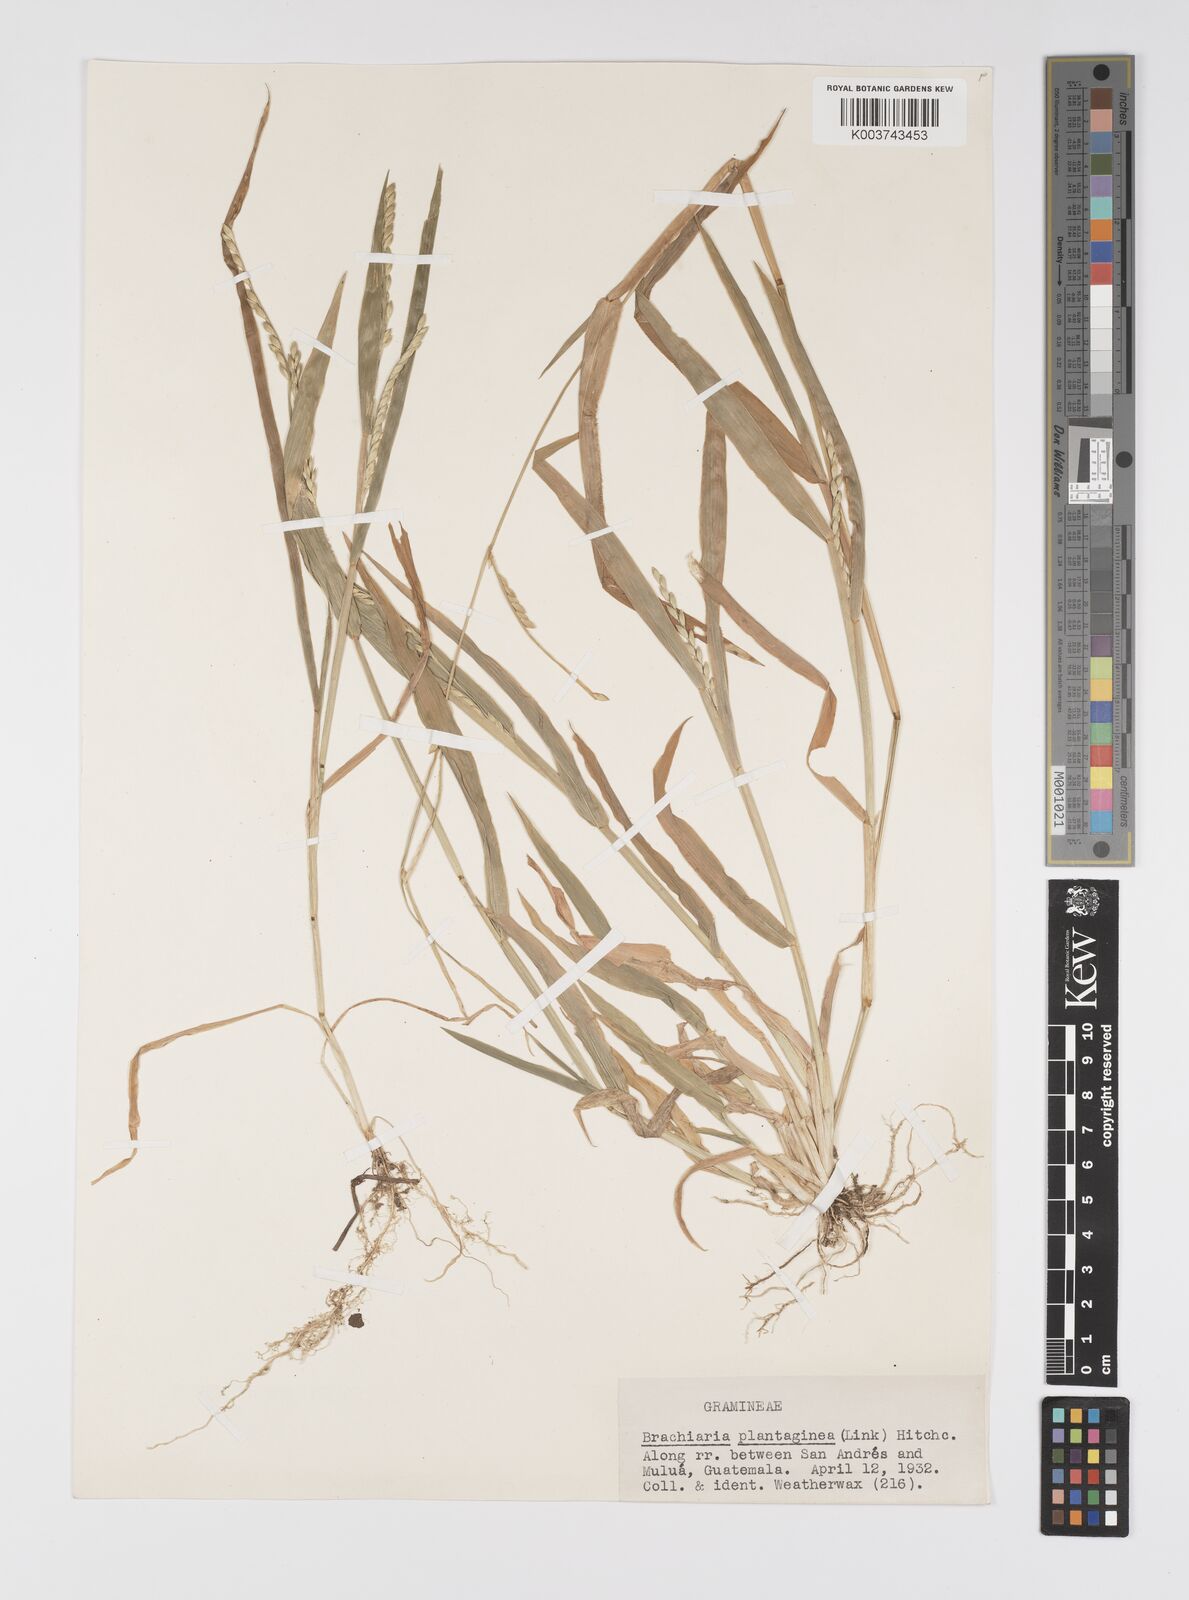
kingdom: Plantae
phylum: Tracheophyta
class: Liliopsida
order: Poales
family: Poaceae
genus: Urochloa
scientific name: Urochloa plantaginea
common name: Plantain signalgrass
